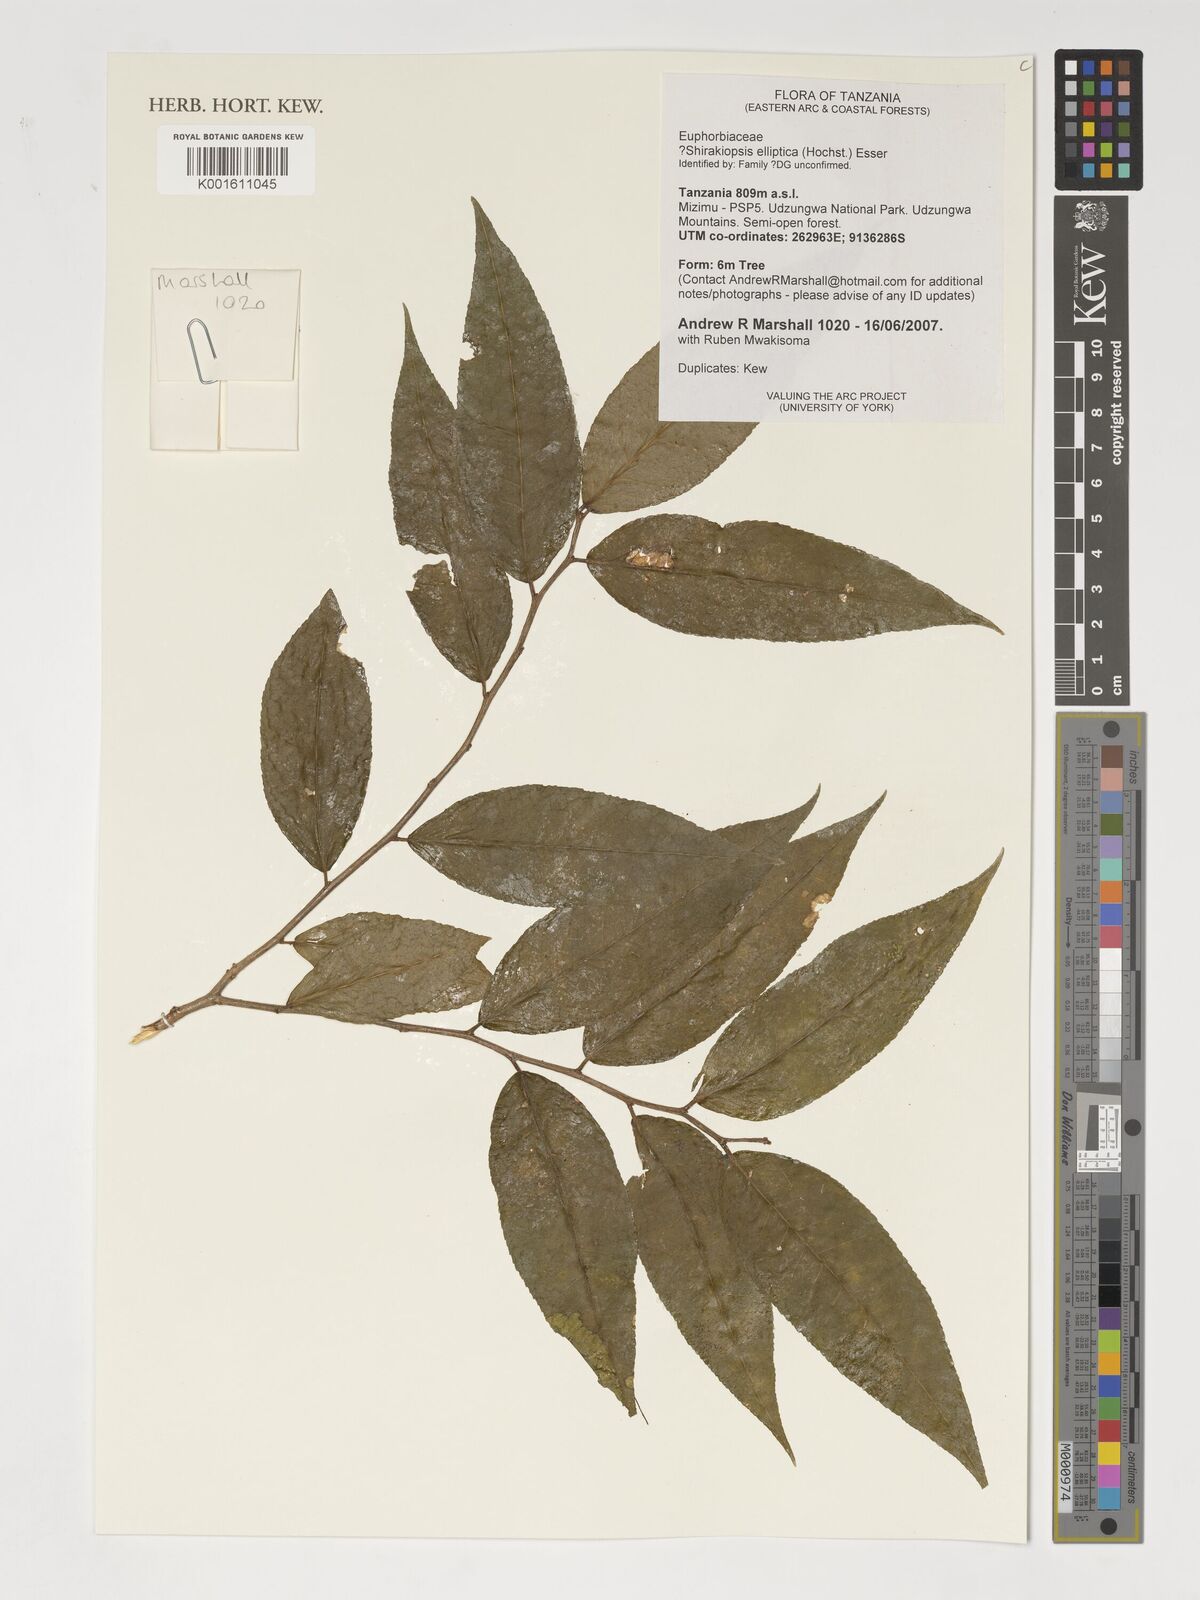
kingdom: Plantae
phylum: Tracheophyta
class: Magnoliopsida
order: Malpighiales
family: Euphorbiaceae
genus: Shirakiopsis
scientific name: Shirakiopsis elliptica
